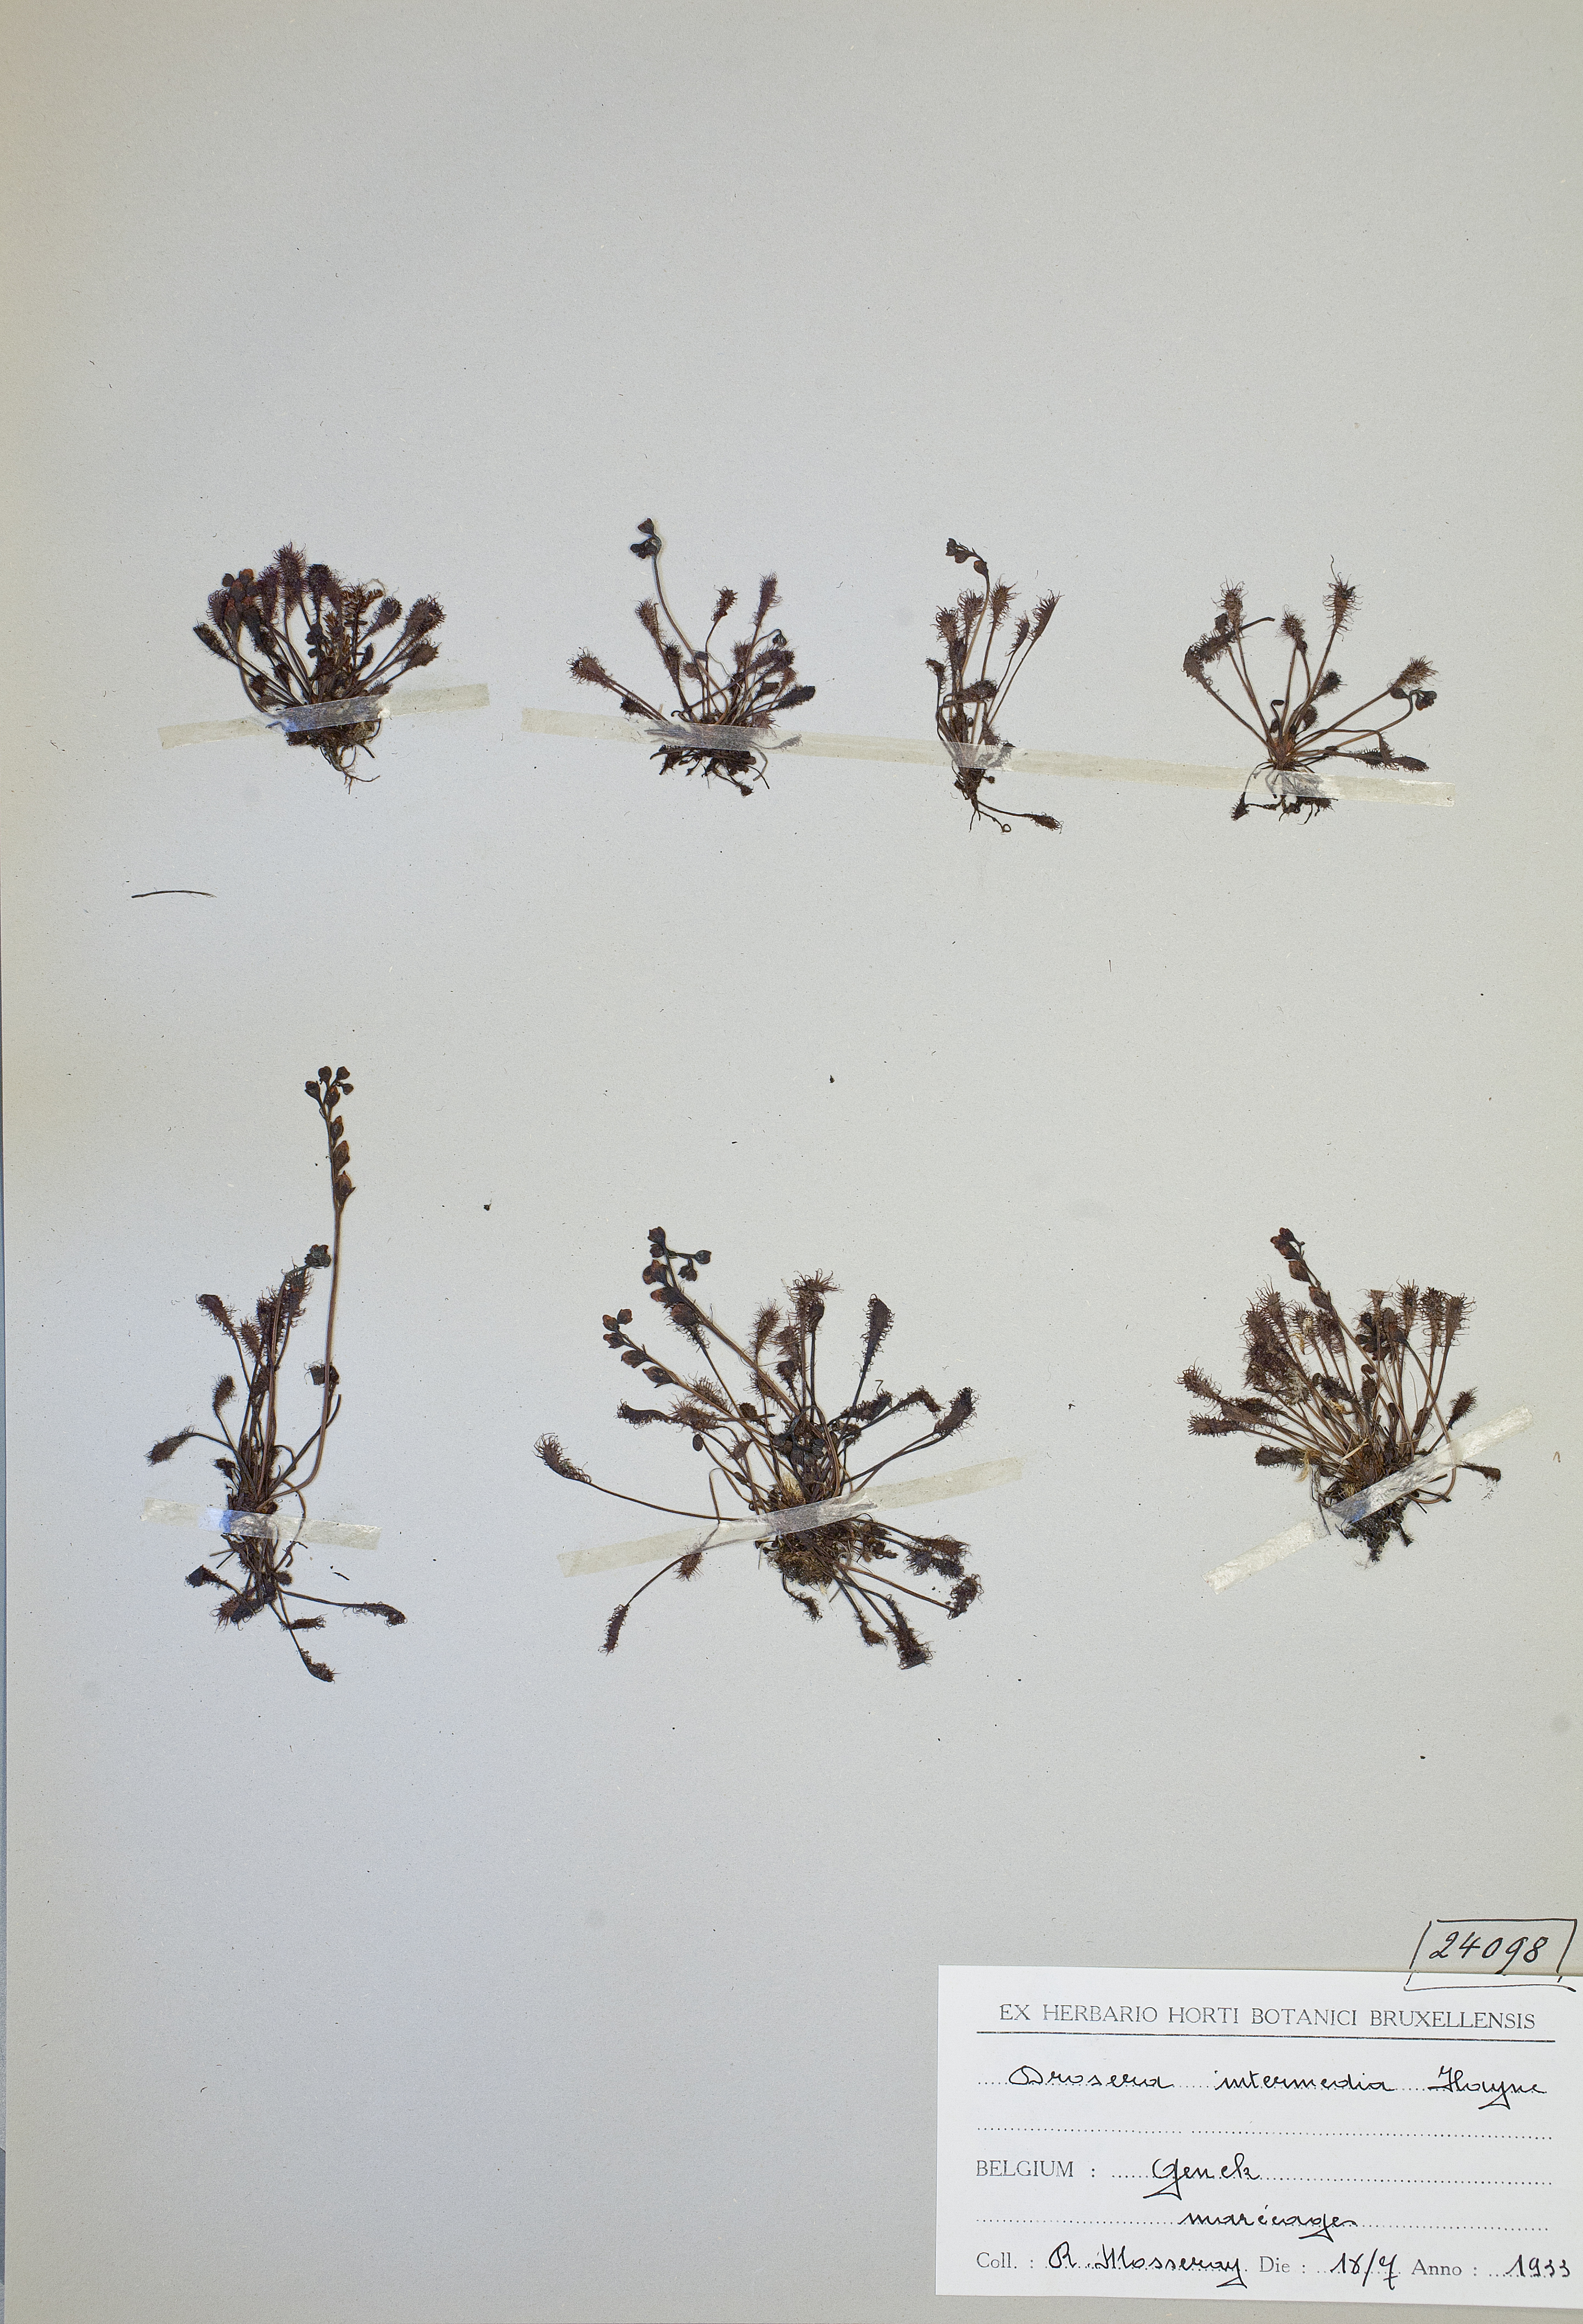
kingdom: Plantae
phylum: Tracheophyta
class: Magnoliopsida
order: Caryophyllales
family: Droseraceae
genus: Drosera
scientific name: Drosera intermedia
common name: Oblong-leaved sundew
